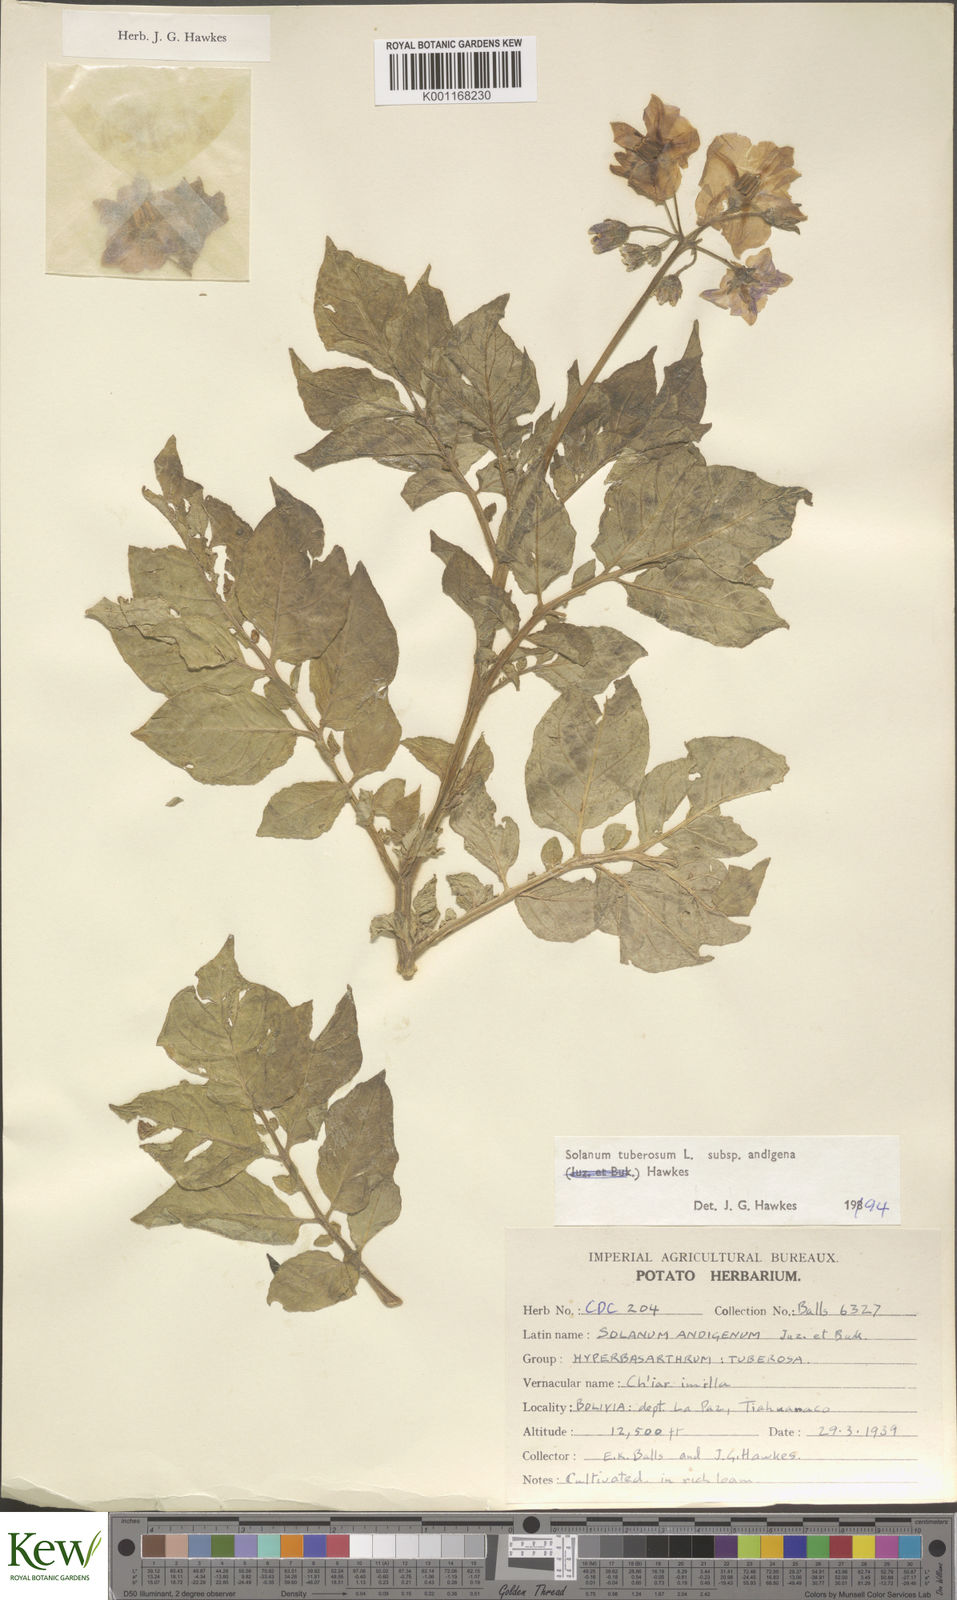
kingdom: Plantae
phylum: Tracheophyta
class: Magnoliopsida
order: Solanales
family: Solanaceae
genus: Solanum
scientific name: Solanum tuberosum
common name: Potato
